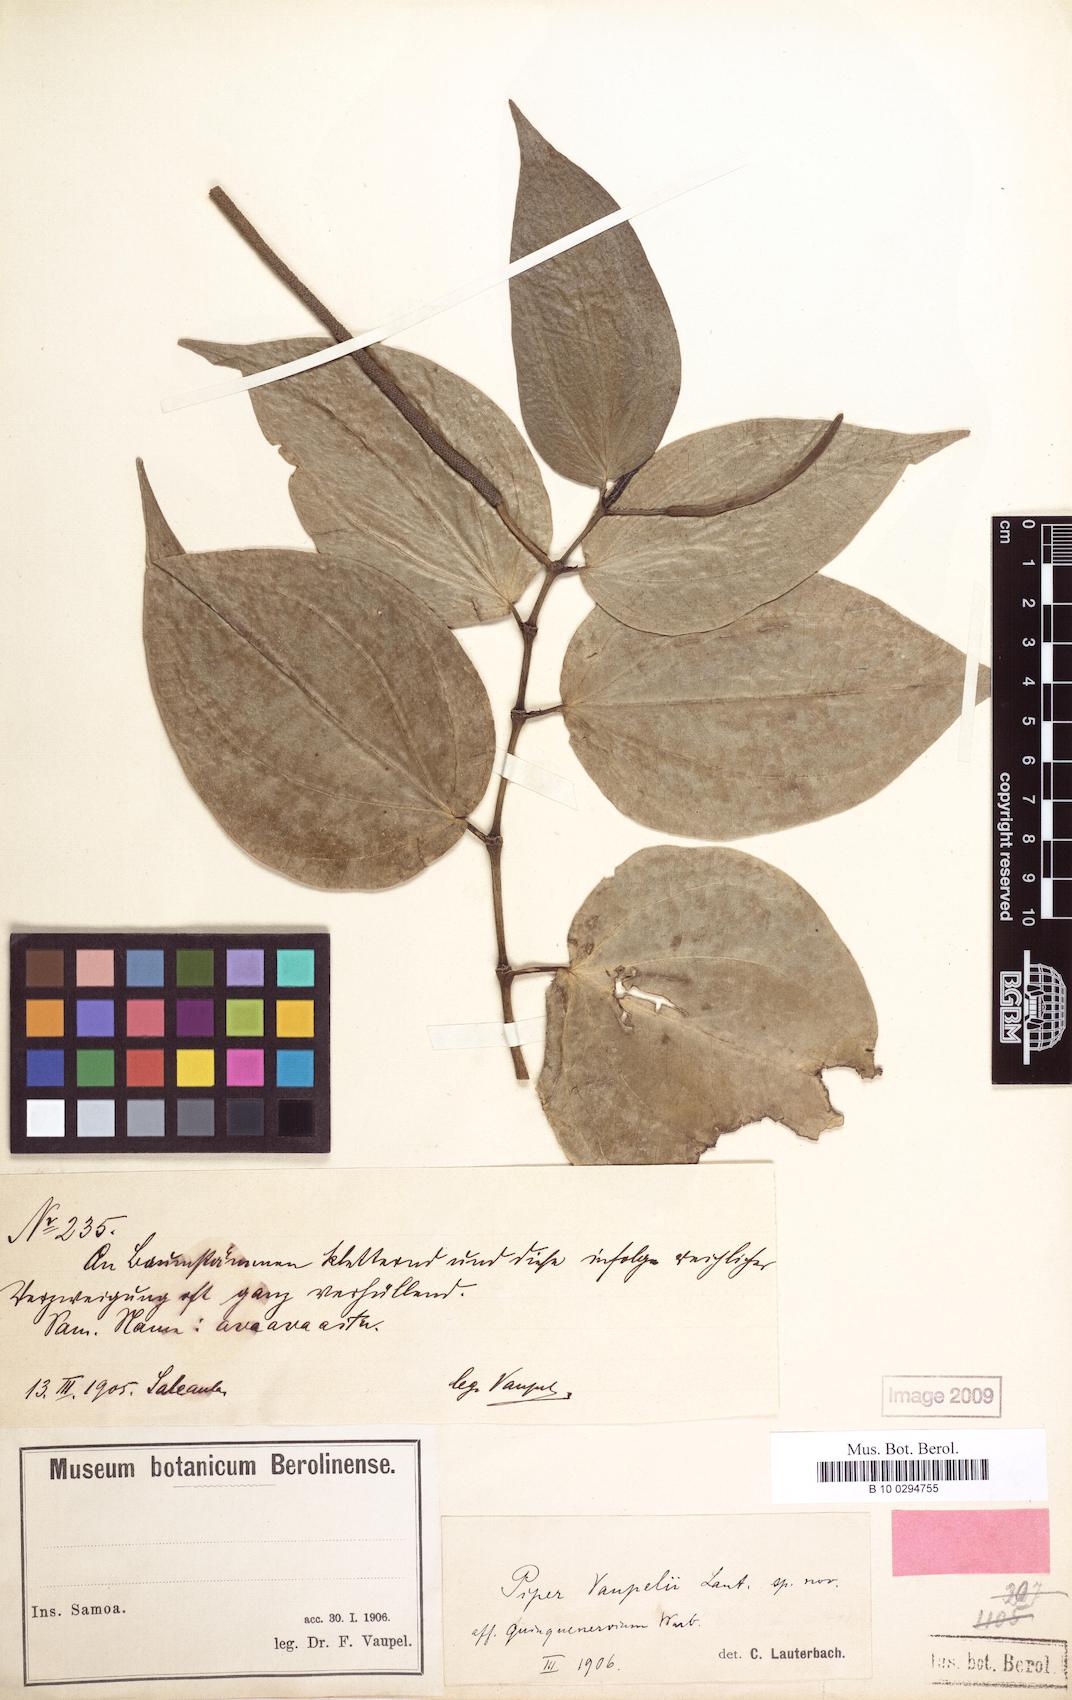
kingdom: Plantae
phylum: Tracheophyta
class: Magnoliopsida
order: Piperales
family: Piperaceae
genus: Piper
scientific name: Piper macropiper
